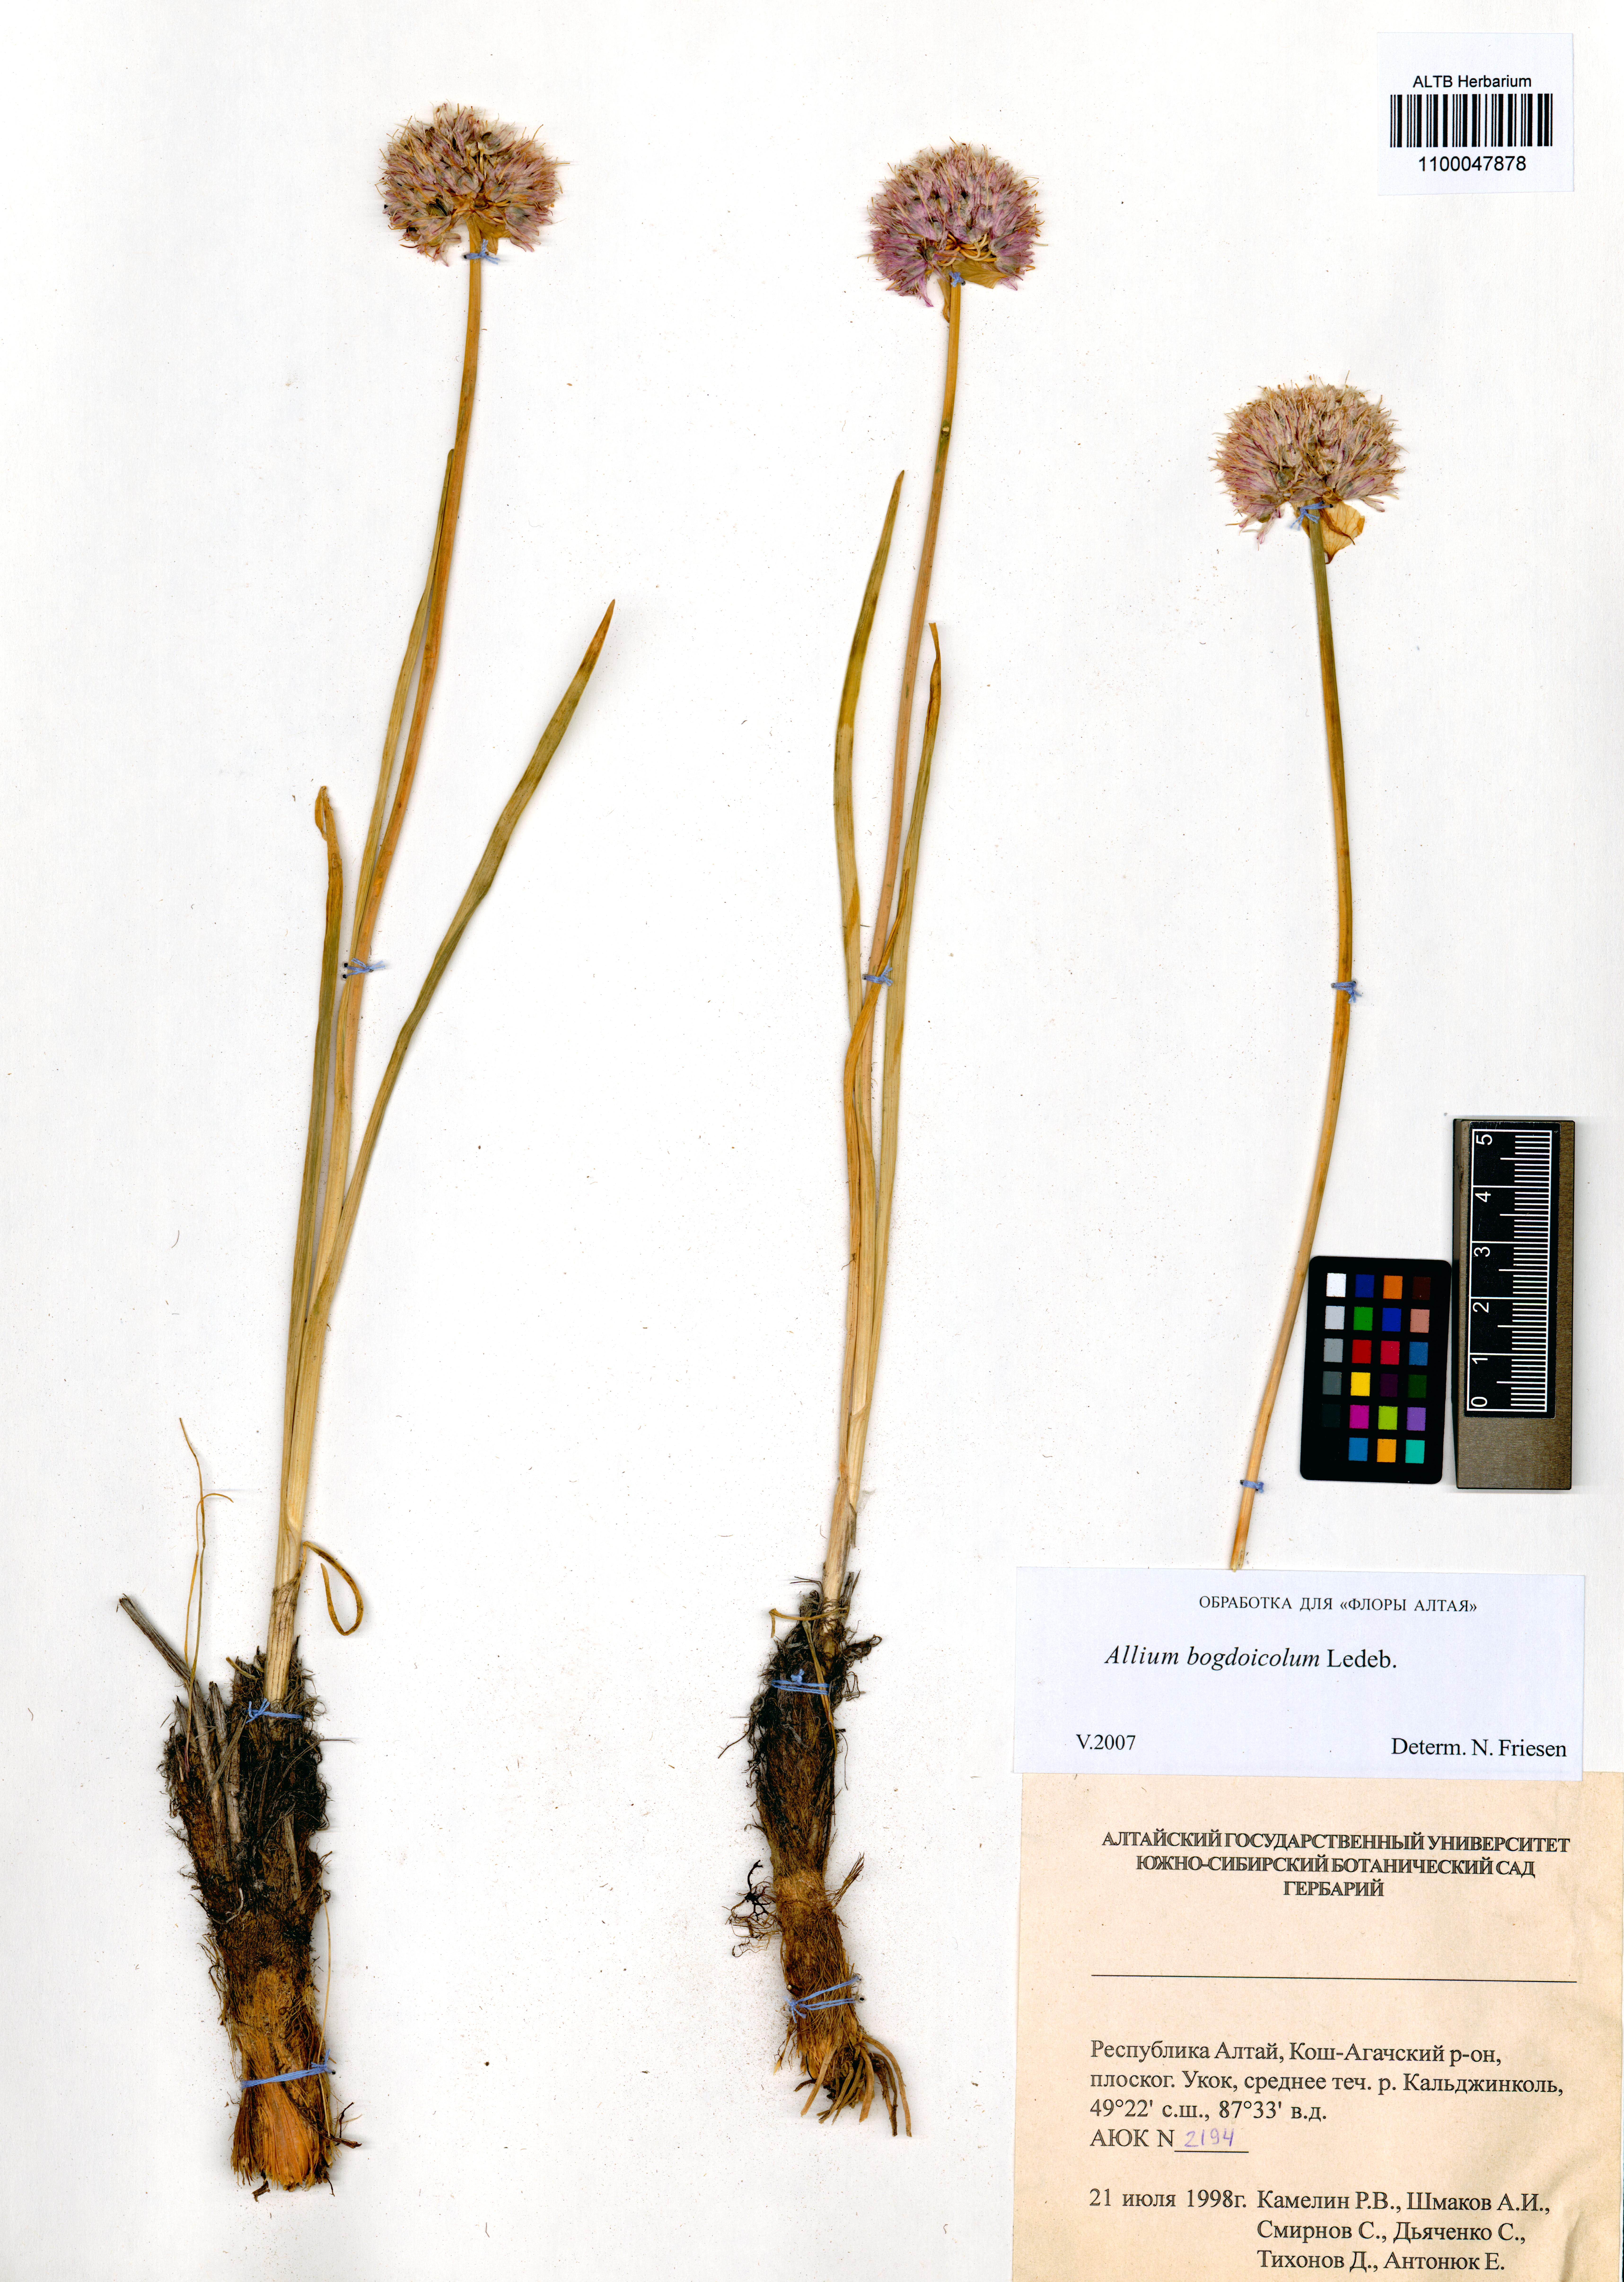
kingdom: Plantae
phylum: Tracheophyta
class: Liliopsida
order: Asparagales
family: Amaryllidaceae
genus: Allium
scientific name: Allium schrenkii
